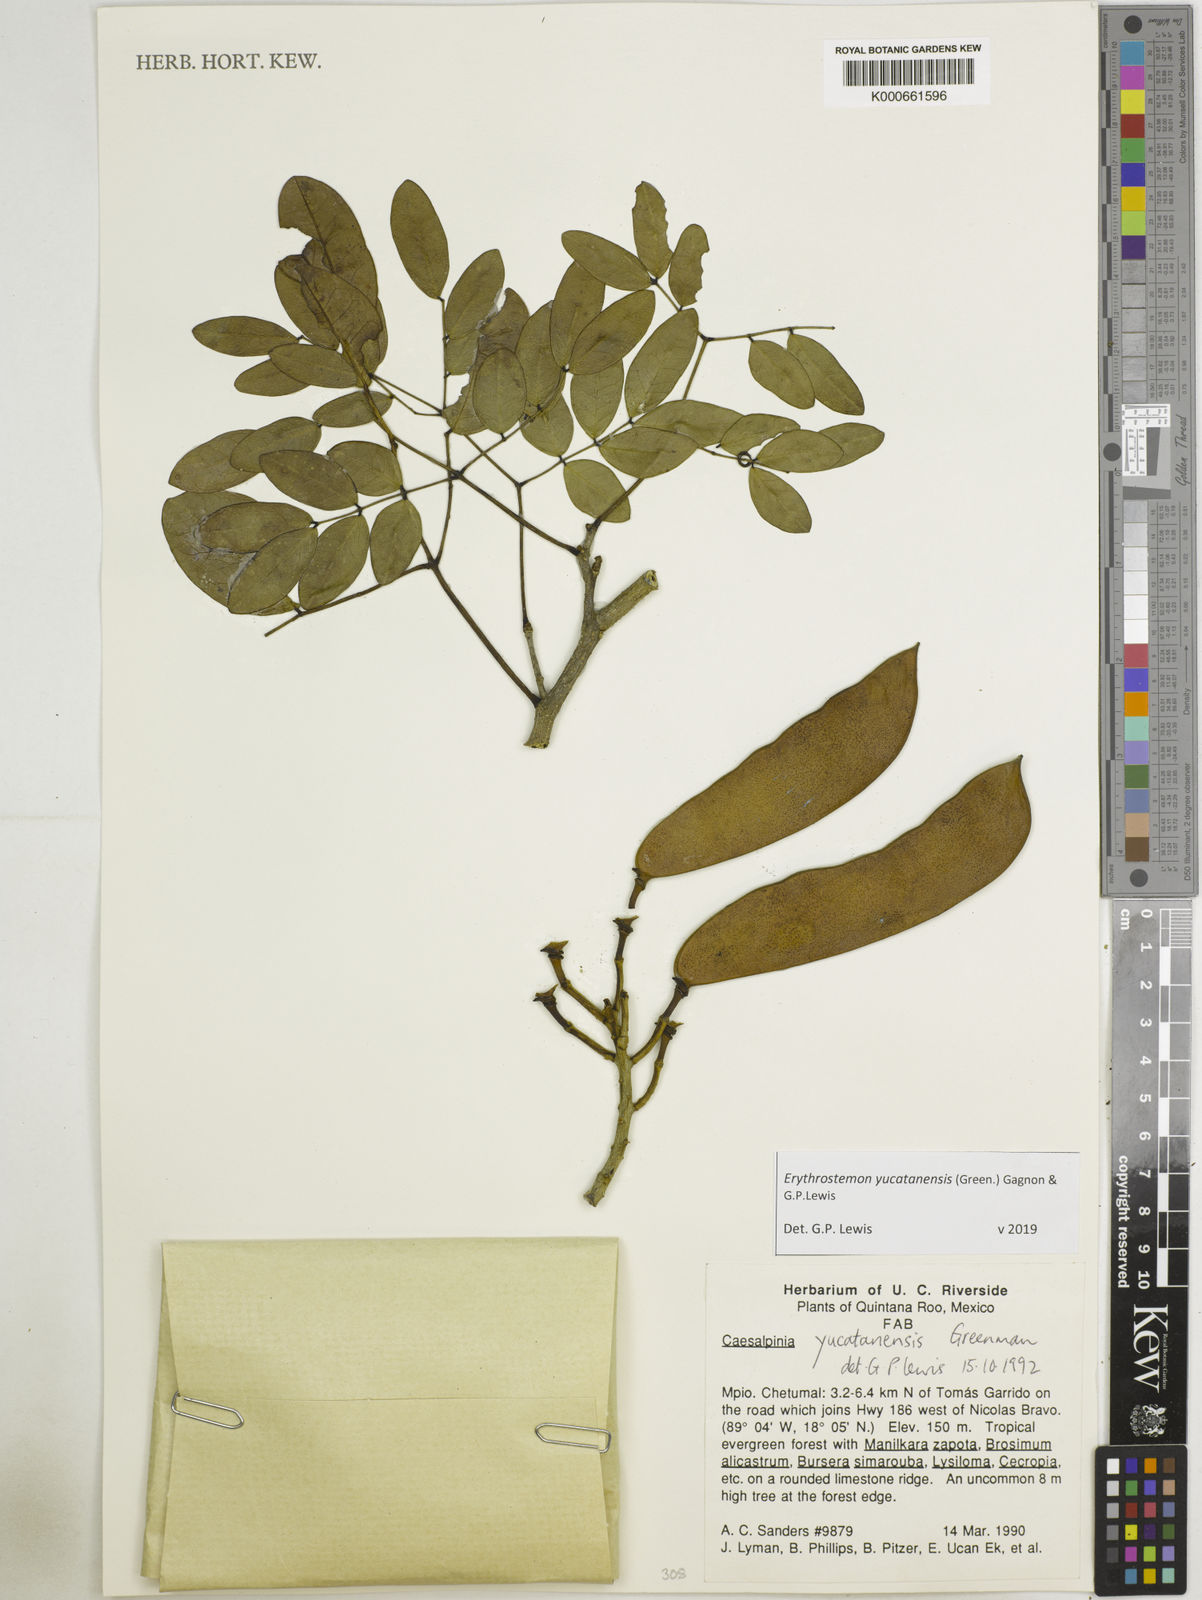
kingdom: Plantae
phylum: Tracheophyta
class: Magnoliopsida
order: Fabales
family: Fabaceae
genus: Caesalpinia
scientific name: Caesalpinia
